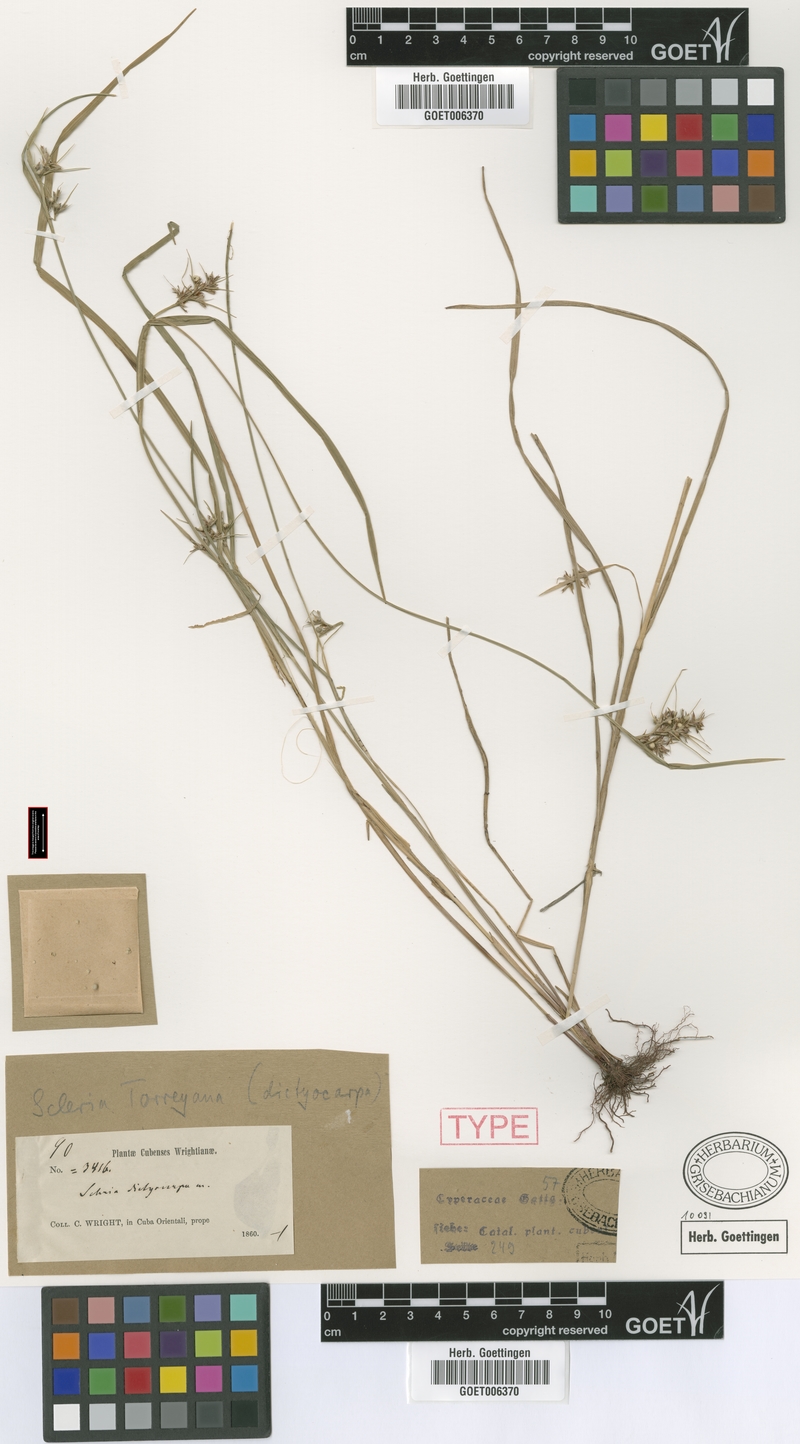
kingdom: Plantae
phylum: Tracheophyta
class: Liliopsida
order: Poales
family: Cyperaceae
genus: Scleria
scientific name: Scleria muehlenbergii
